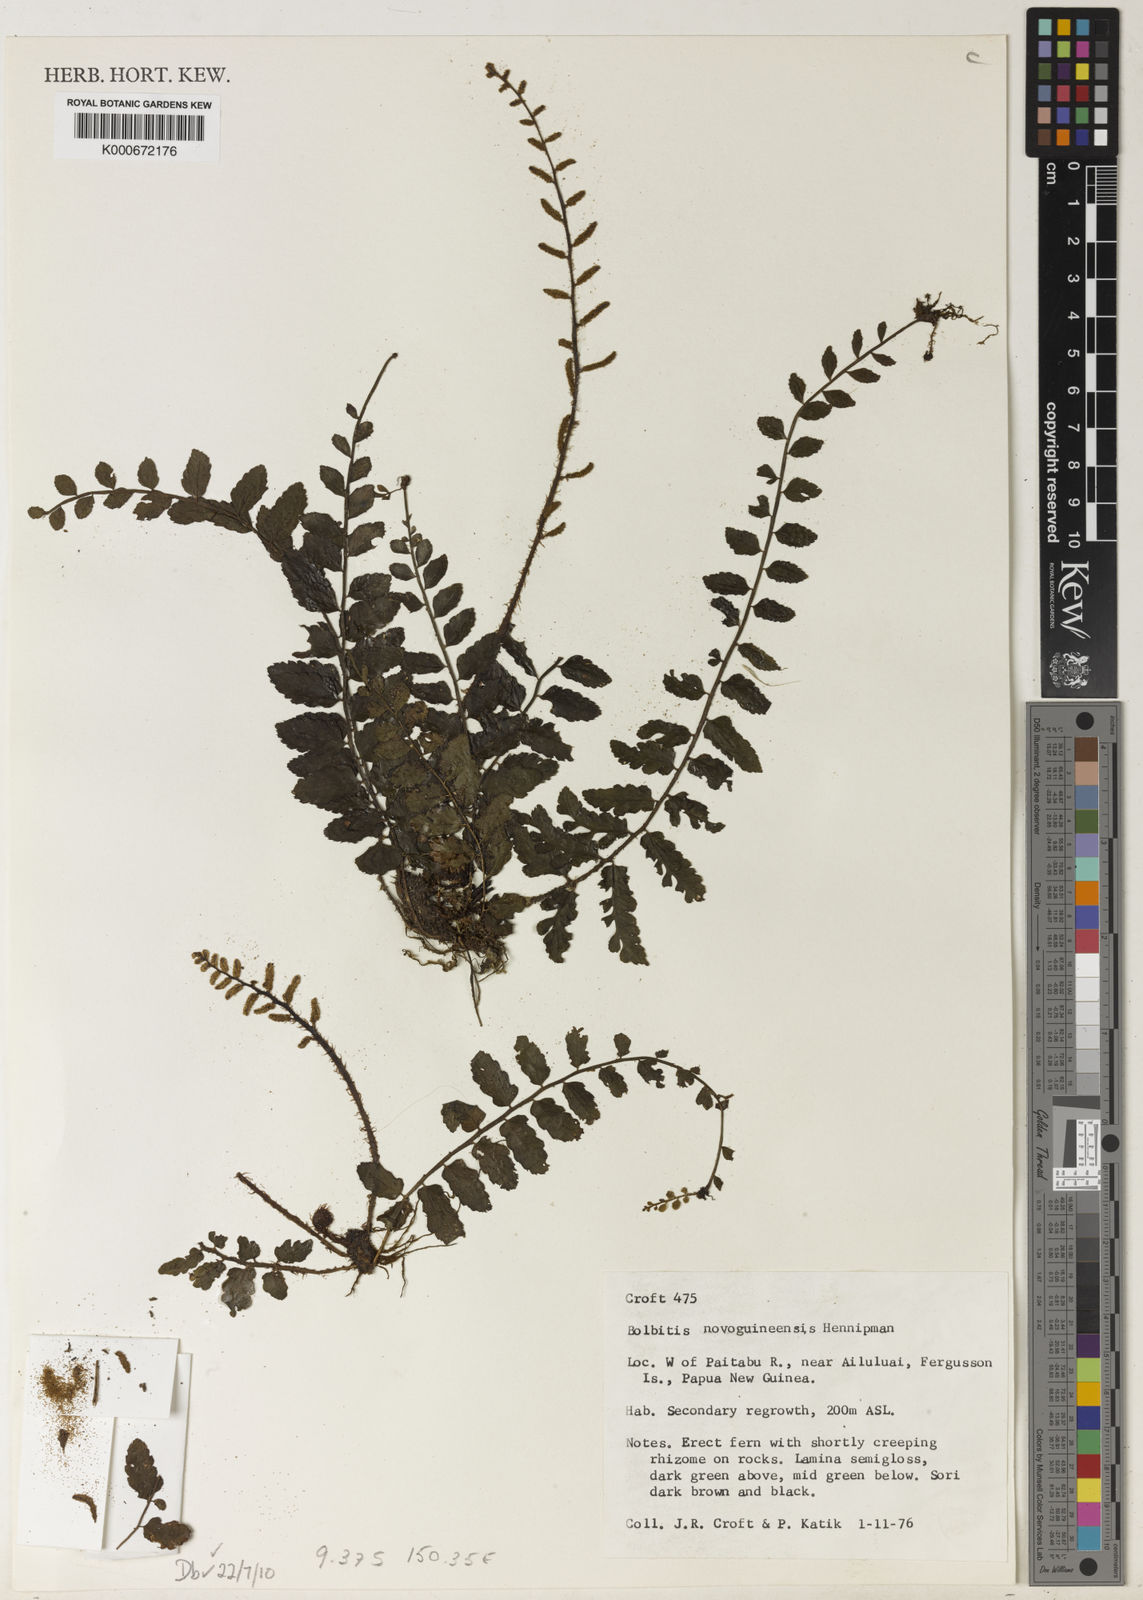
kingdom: Plantae
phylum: Tracheophyta
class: Polypodiopsida
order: Polypodiales
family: Dryopteridaceae
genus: Bolbitis
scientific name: Bolbitis novoguineensis
